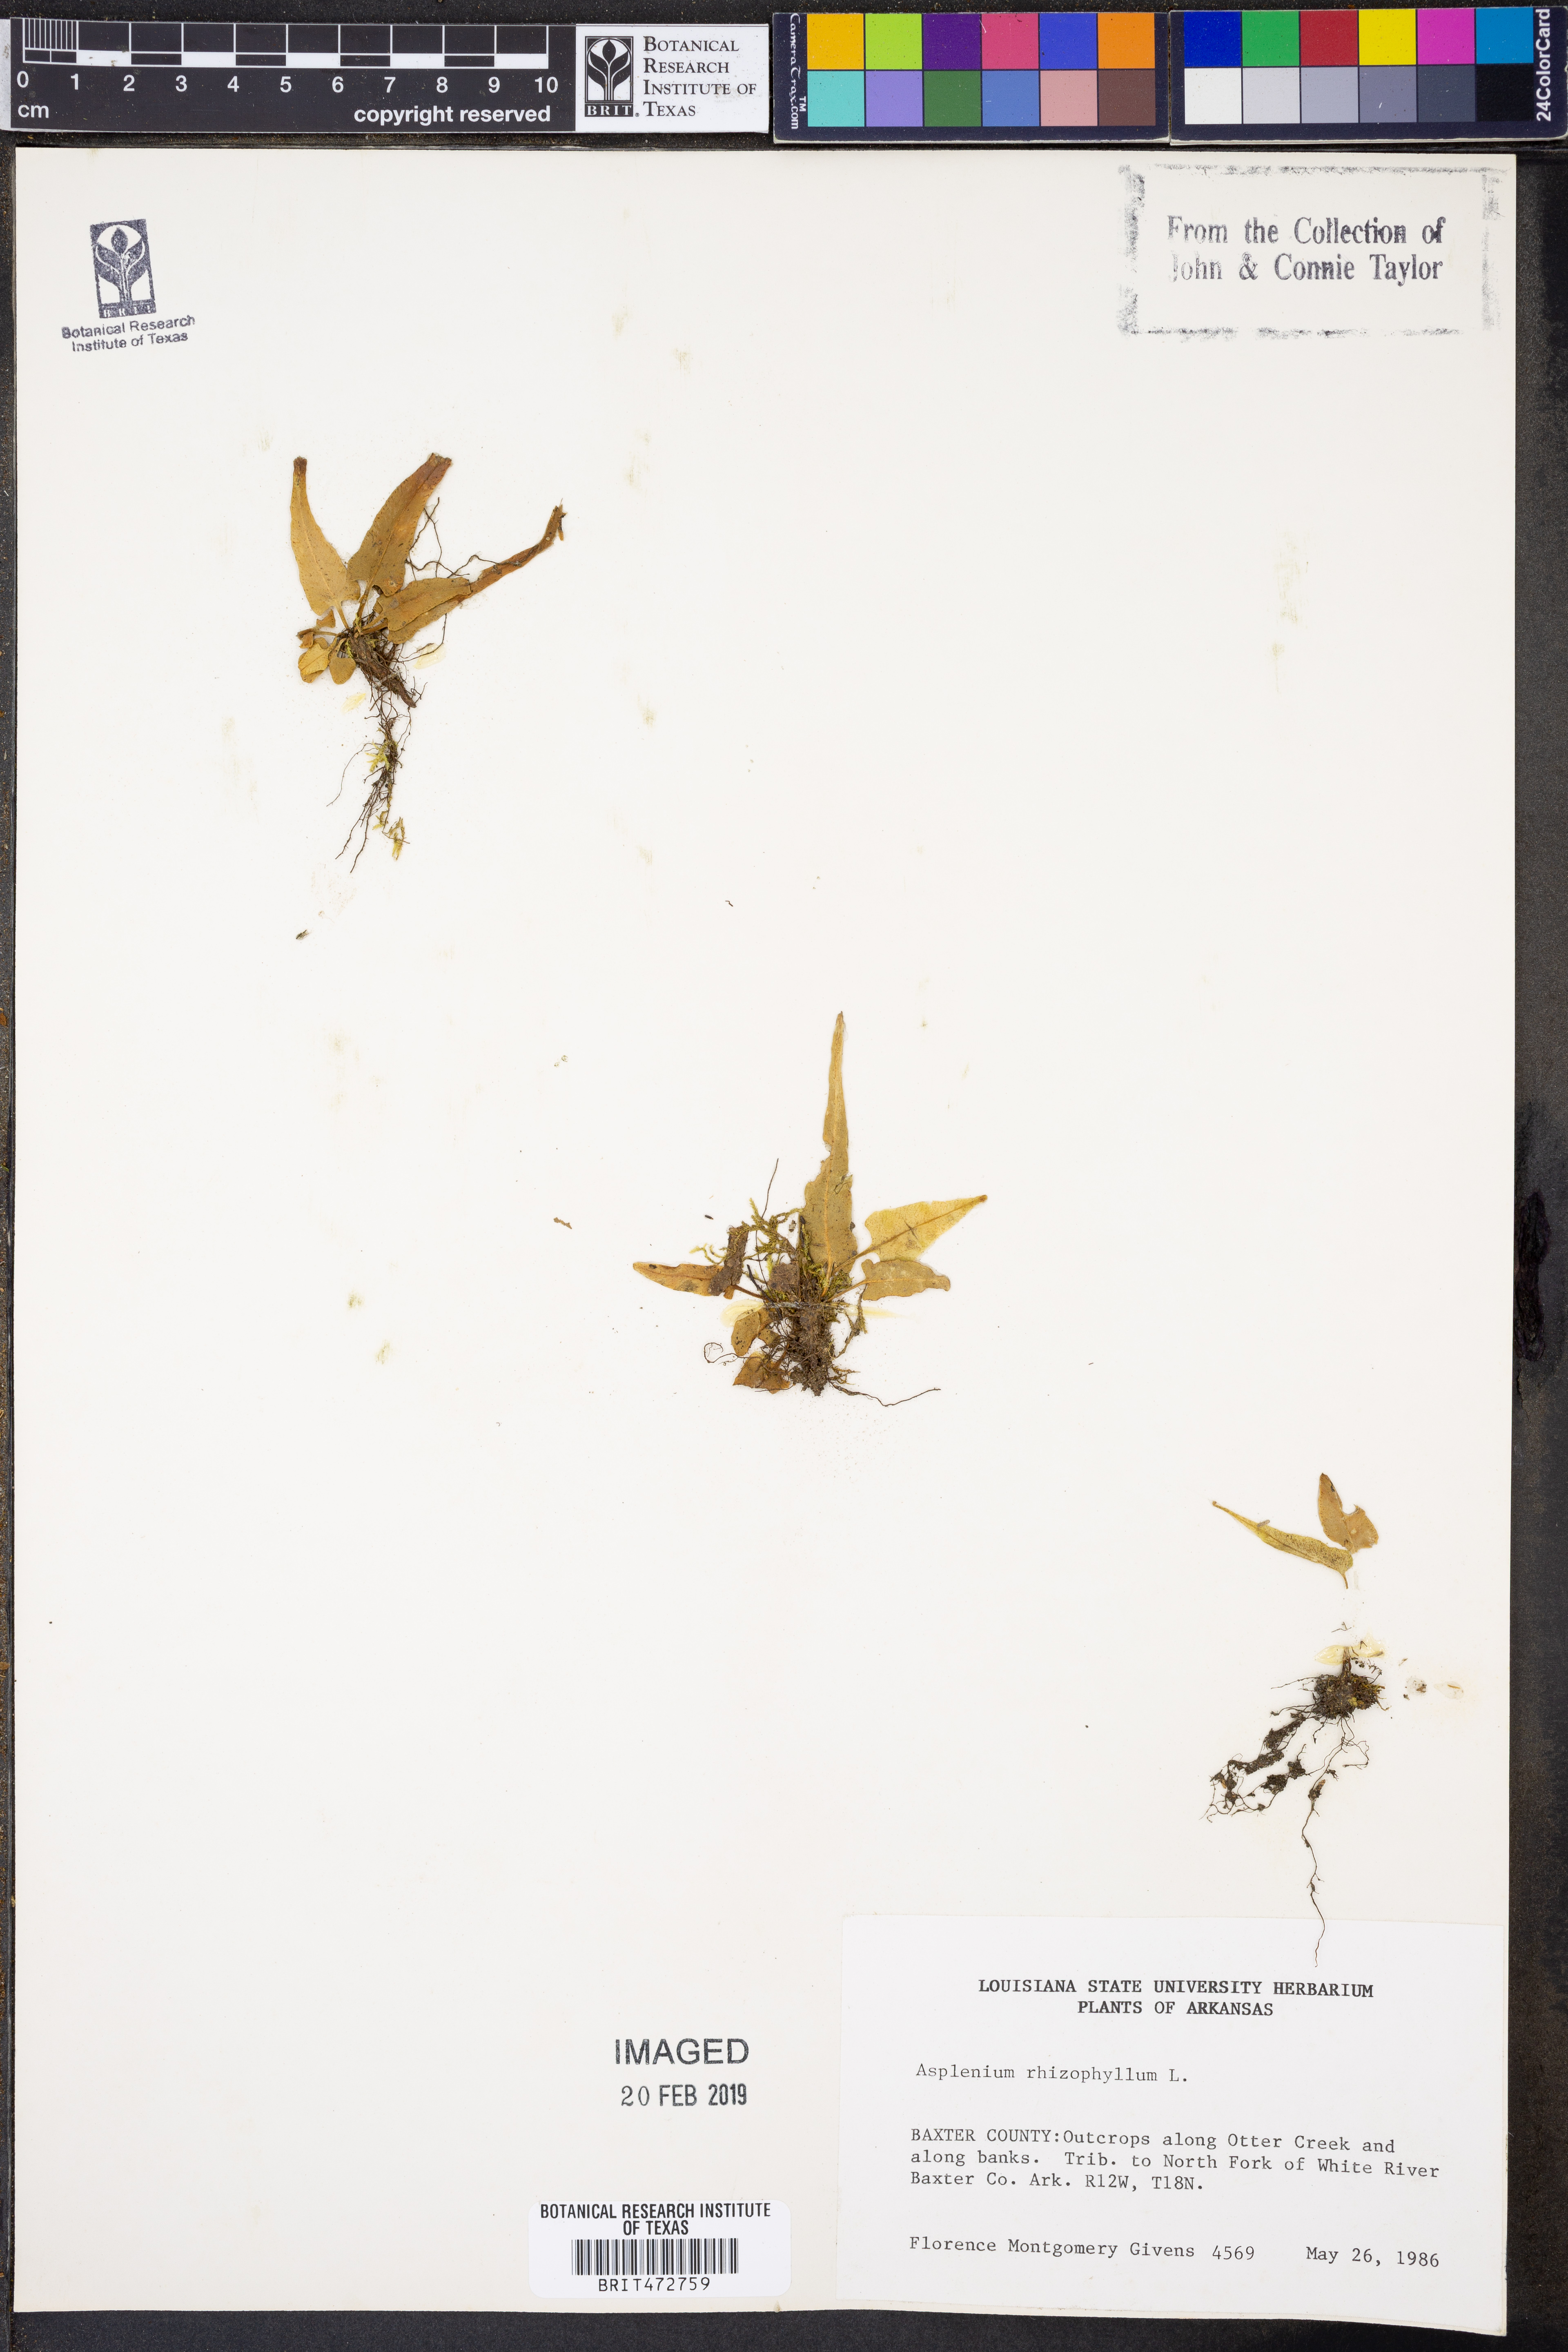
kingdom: Plantae
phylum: Tracheophyta
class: Polypodiopsida
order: Polypodiales
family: Aspleniaceae
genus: Asplenium
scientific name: Asplenium rhizophyllum
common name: Walking fern
